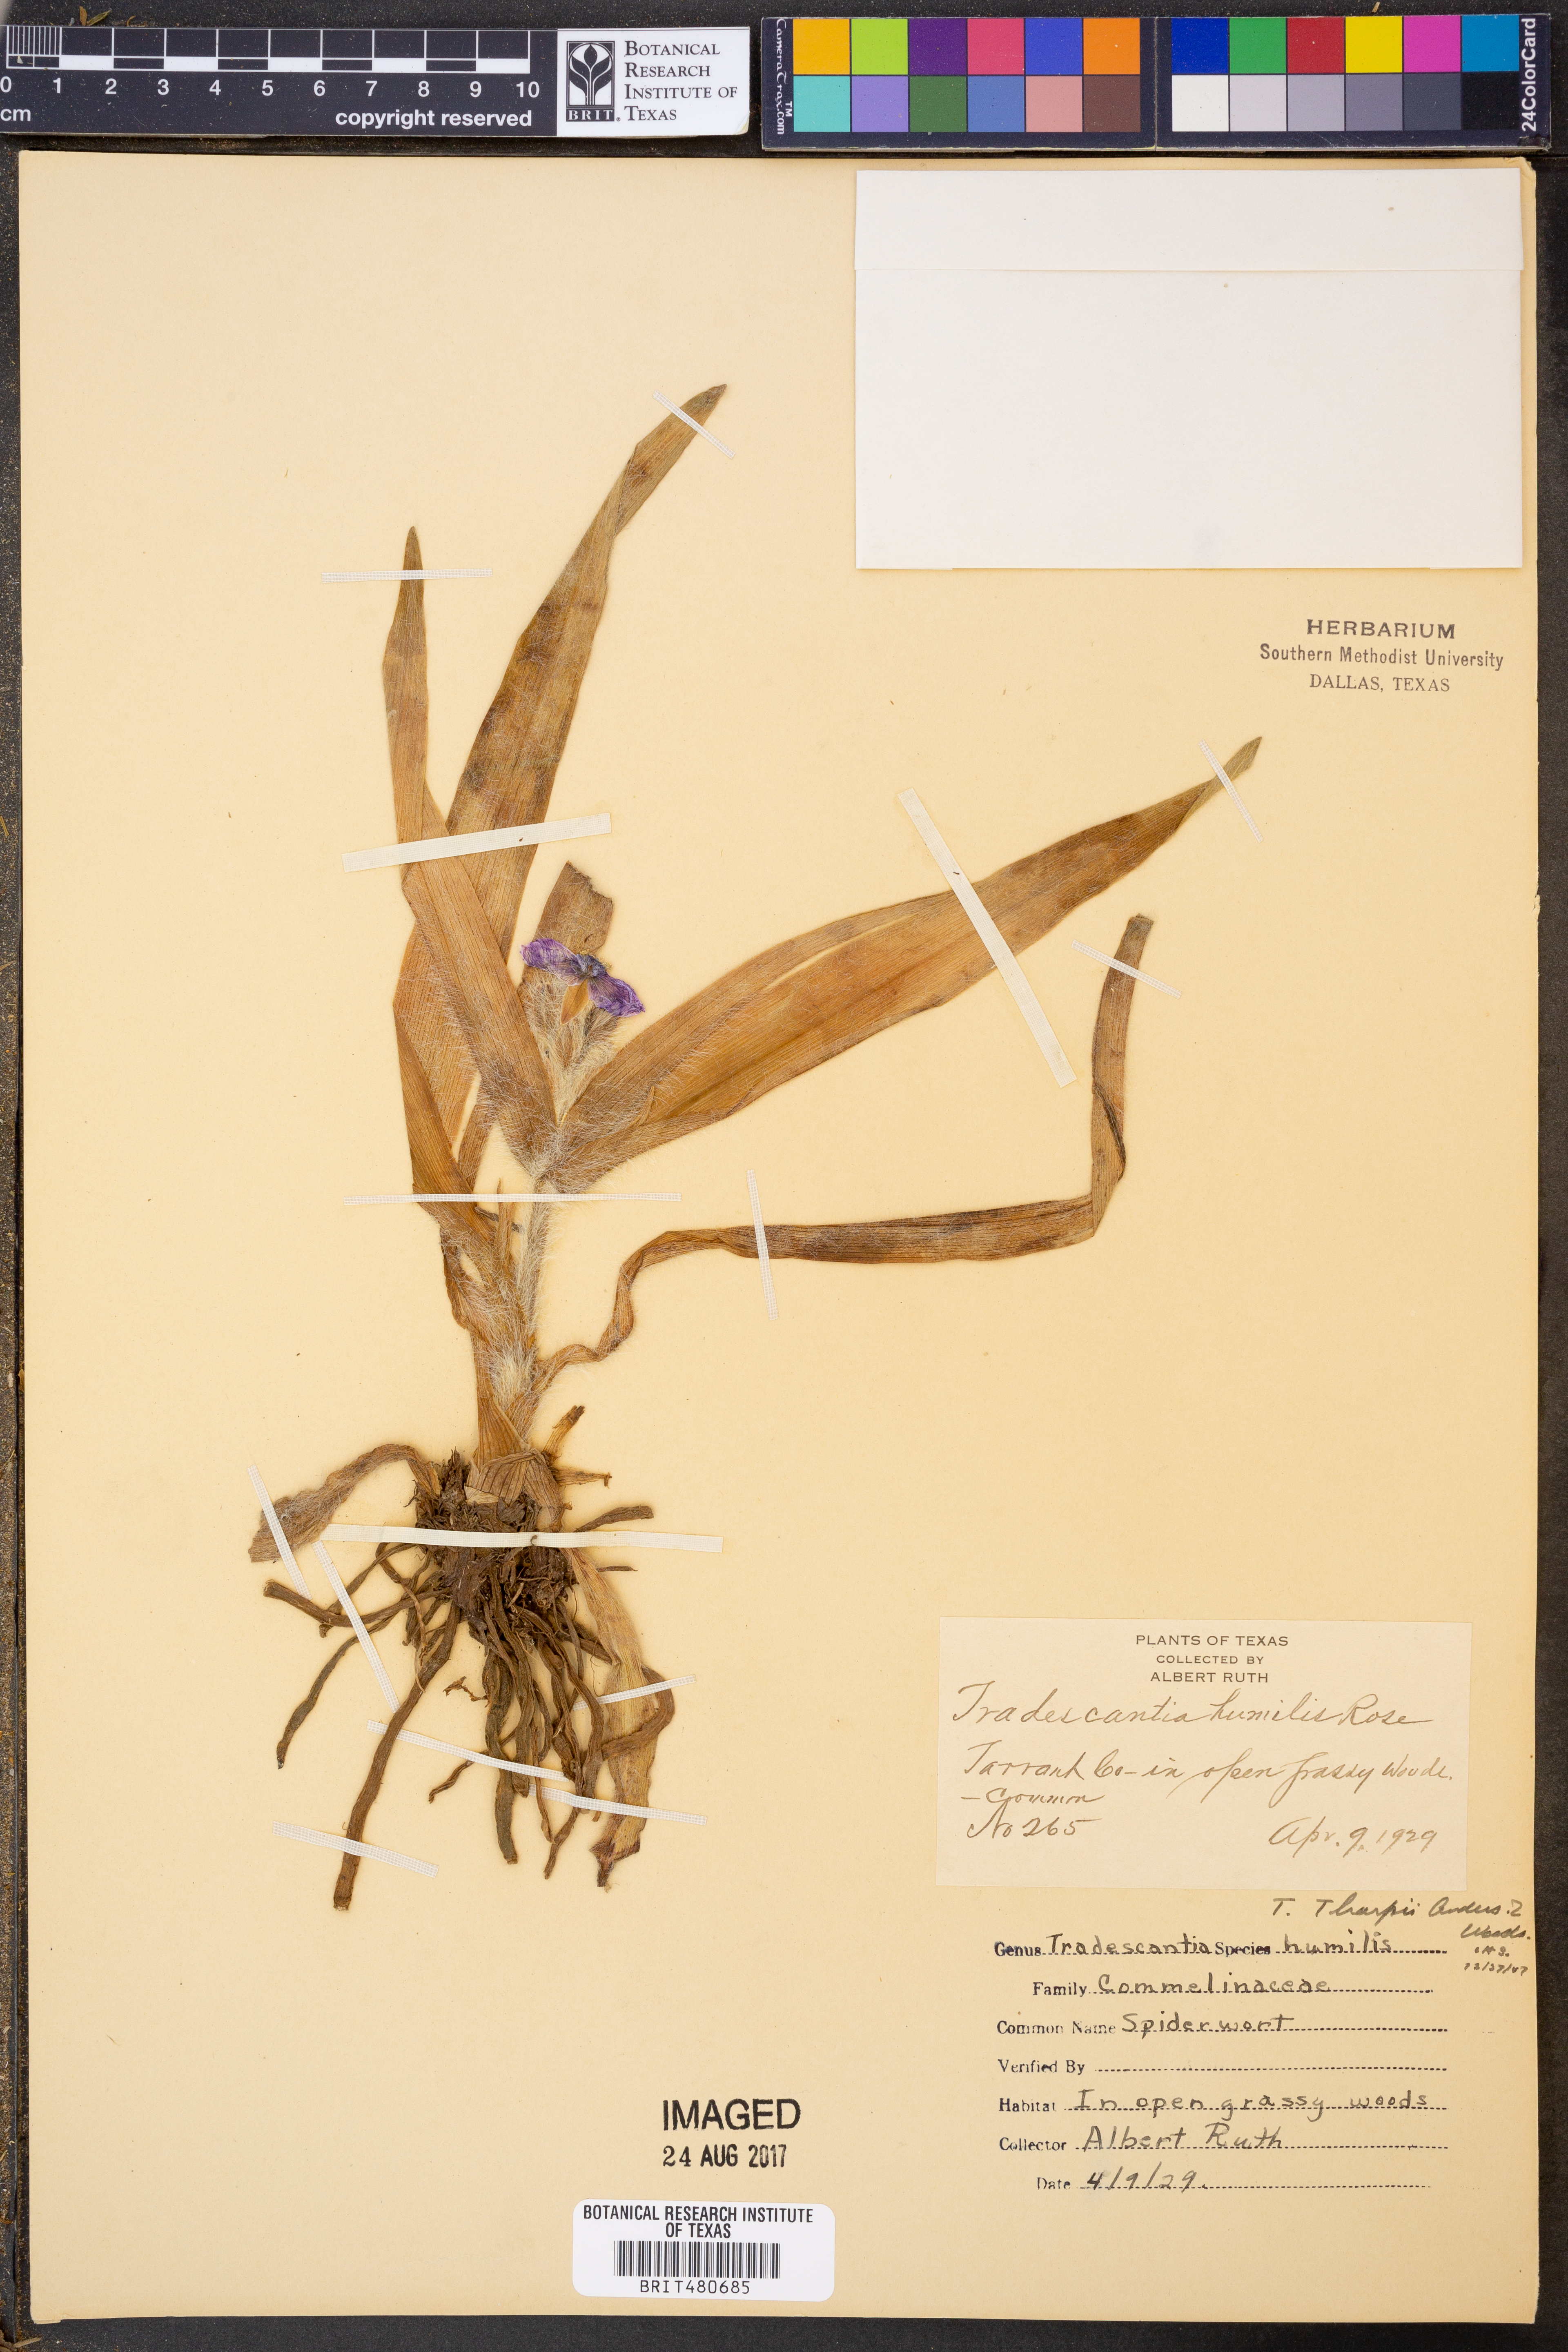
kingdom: Plantae
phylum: Tracheophyta
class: Liliopsida
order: Commelinales
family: Commelinaceae
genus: Tradescantia
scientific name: Tradescantia humilis
